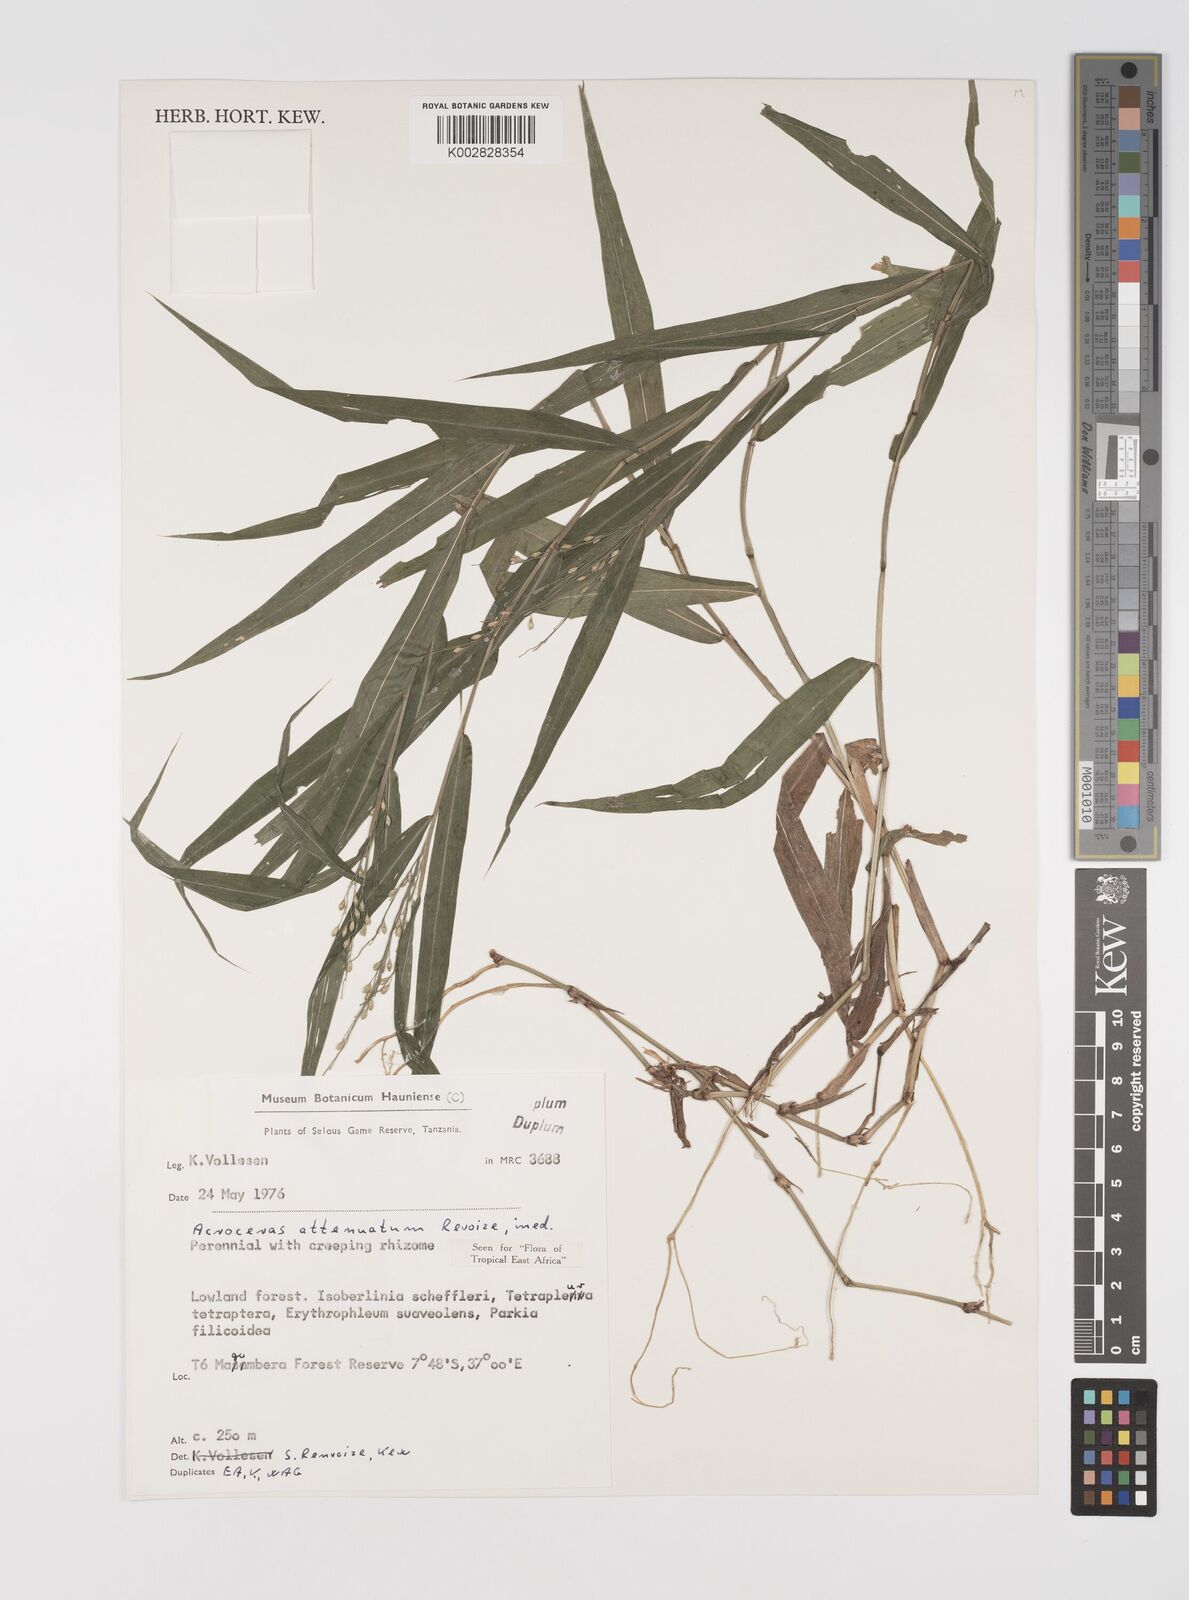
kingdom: Plantae
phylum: Tracheophyta
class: Liliopsida
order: Poales
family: Poaceae
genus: Acroceras
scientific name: Acroceras attenuatum
